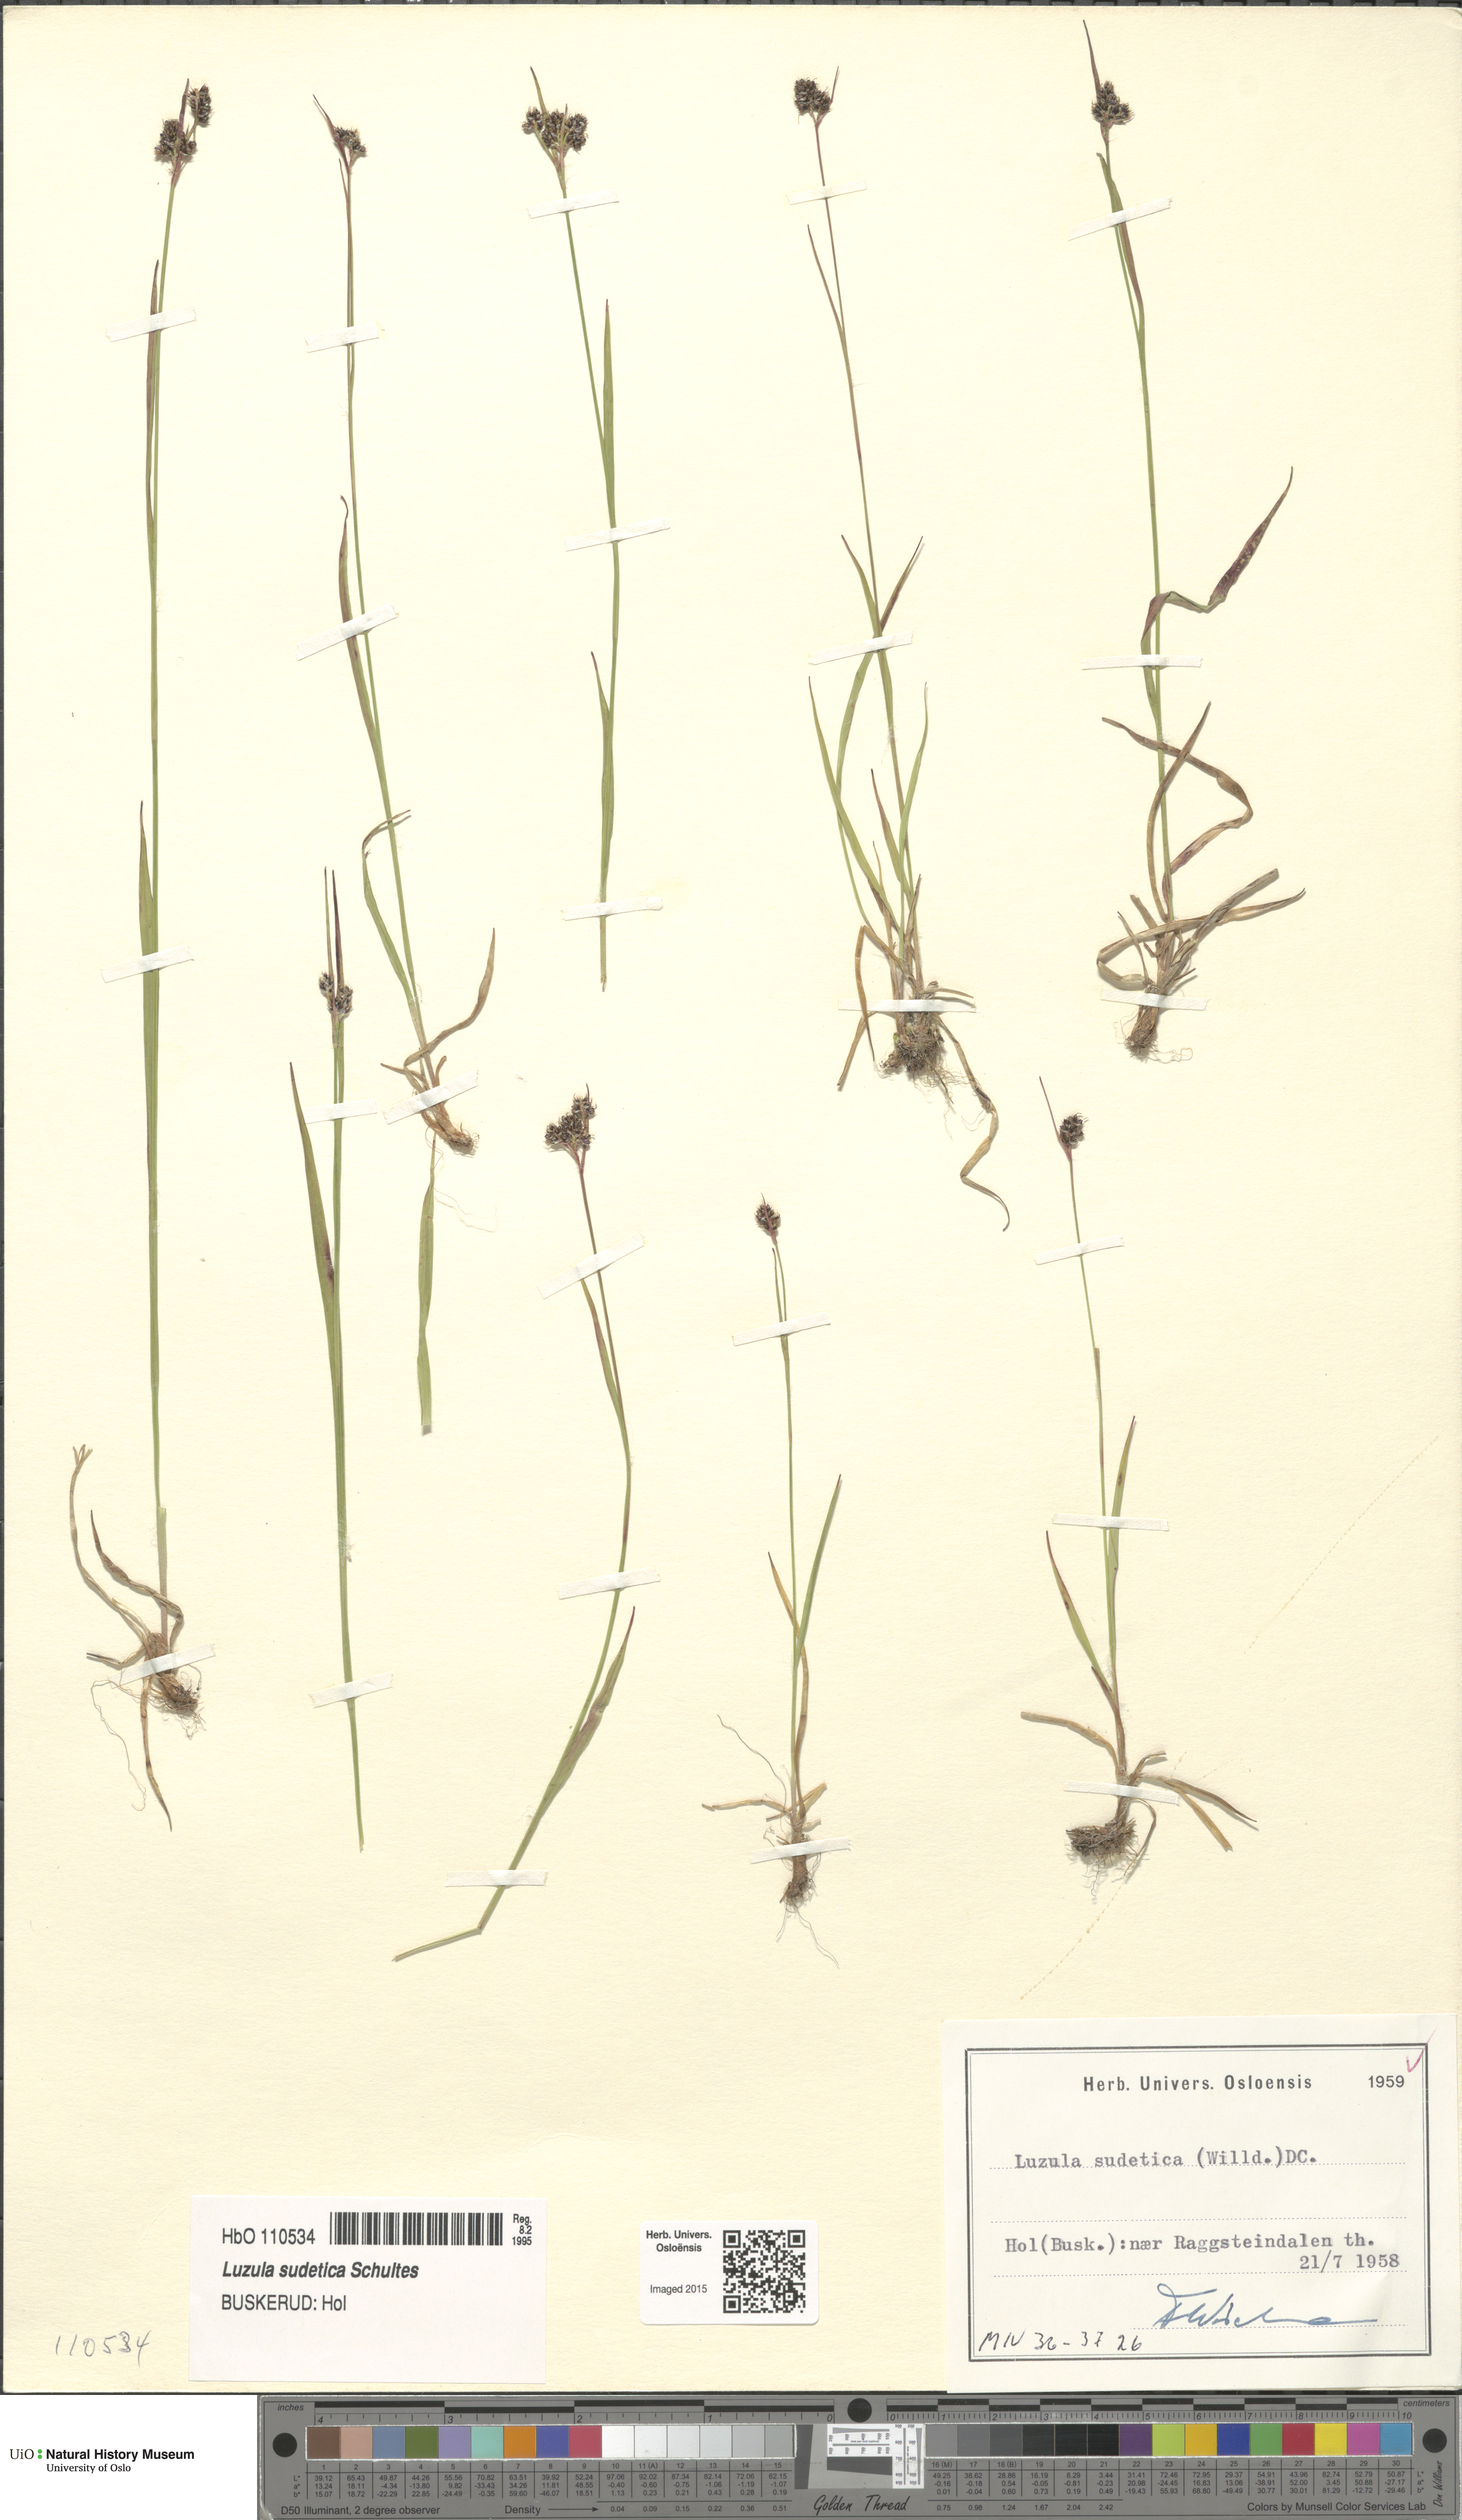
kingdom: Plantae
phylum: Tracheophyta
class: Liliopsida
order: Poales
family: Juncaceae
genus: Luzula
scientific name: Luzula sudetica
